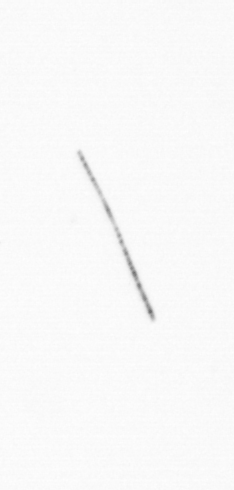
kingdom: Chromista
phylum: Ochrophyta
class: Bacillariophyceae
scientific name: Bacillariophyceae
